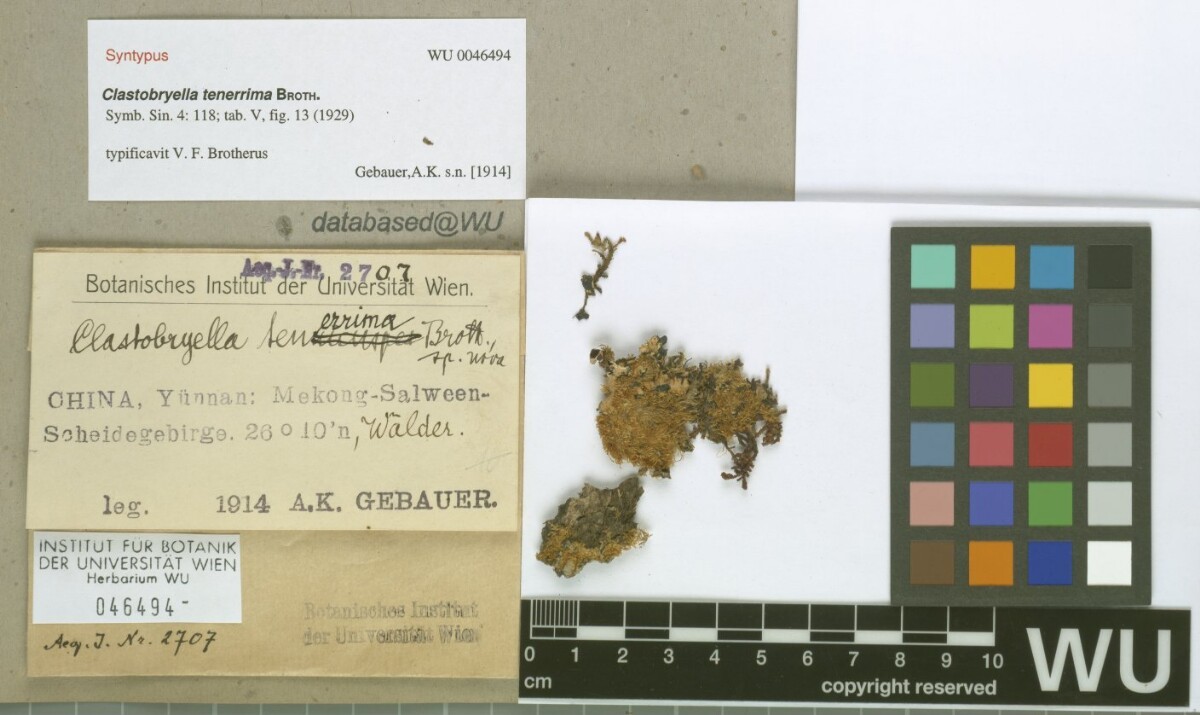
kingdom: Plantae
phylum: Bryophyta
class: Bryopsida
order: Hypnales
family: Pylaisiadelphaceae
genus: Clastobryellina
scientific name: Clastobryellina ceylonensis
